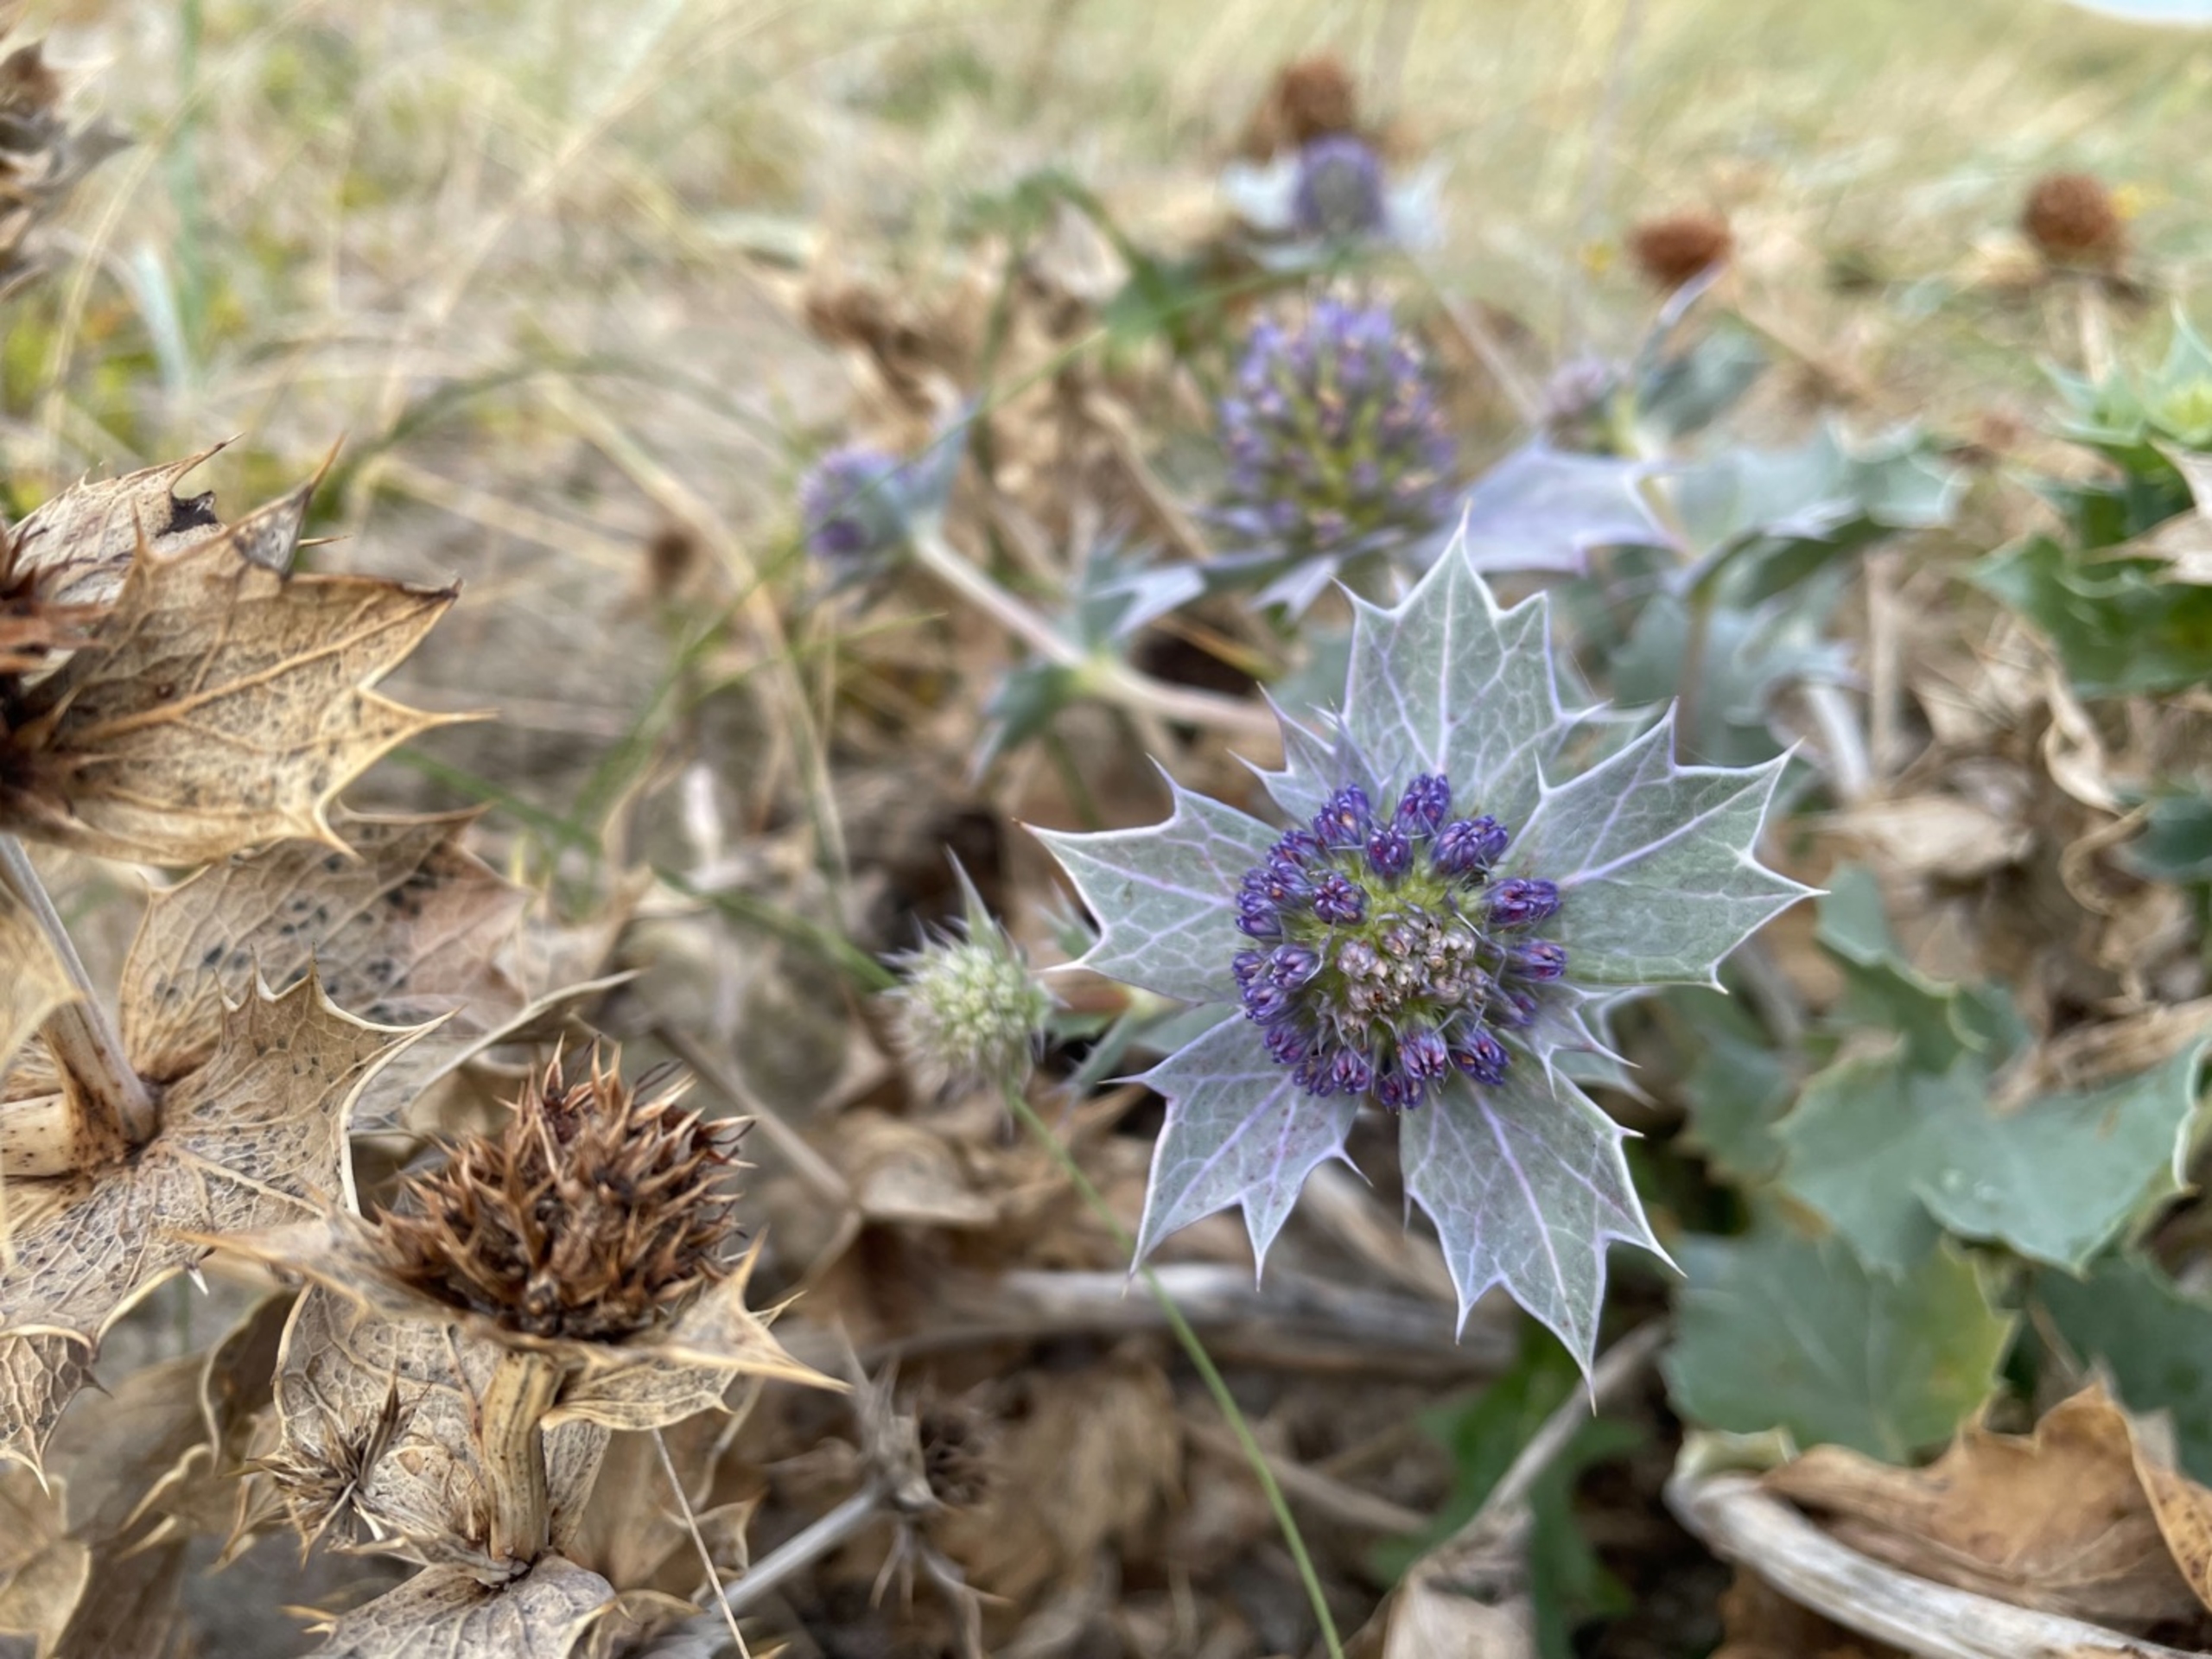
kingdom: Plantae
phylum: Tracheophyta
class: Magnoliopsida
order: Apiales
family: Apiaceae
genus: Eryngium
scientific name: Eryngium maritimum
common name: Strand-mandstro
